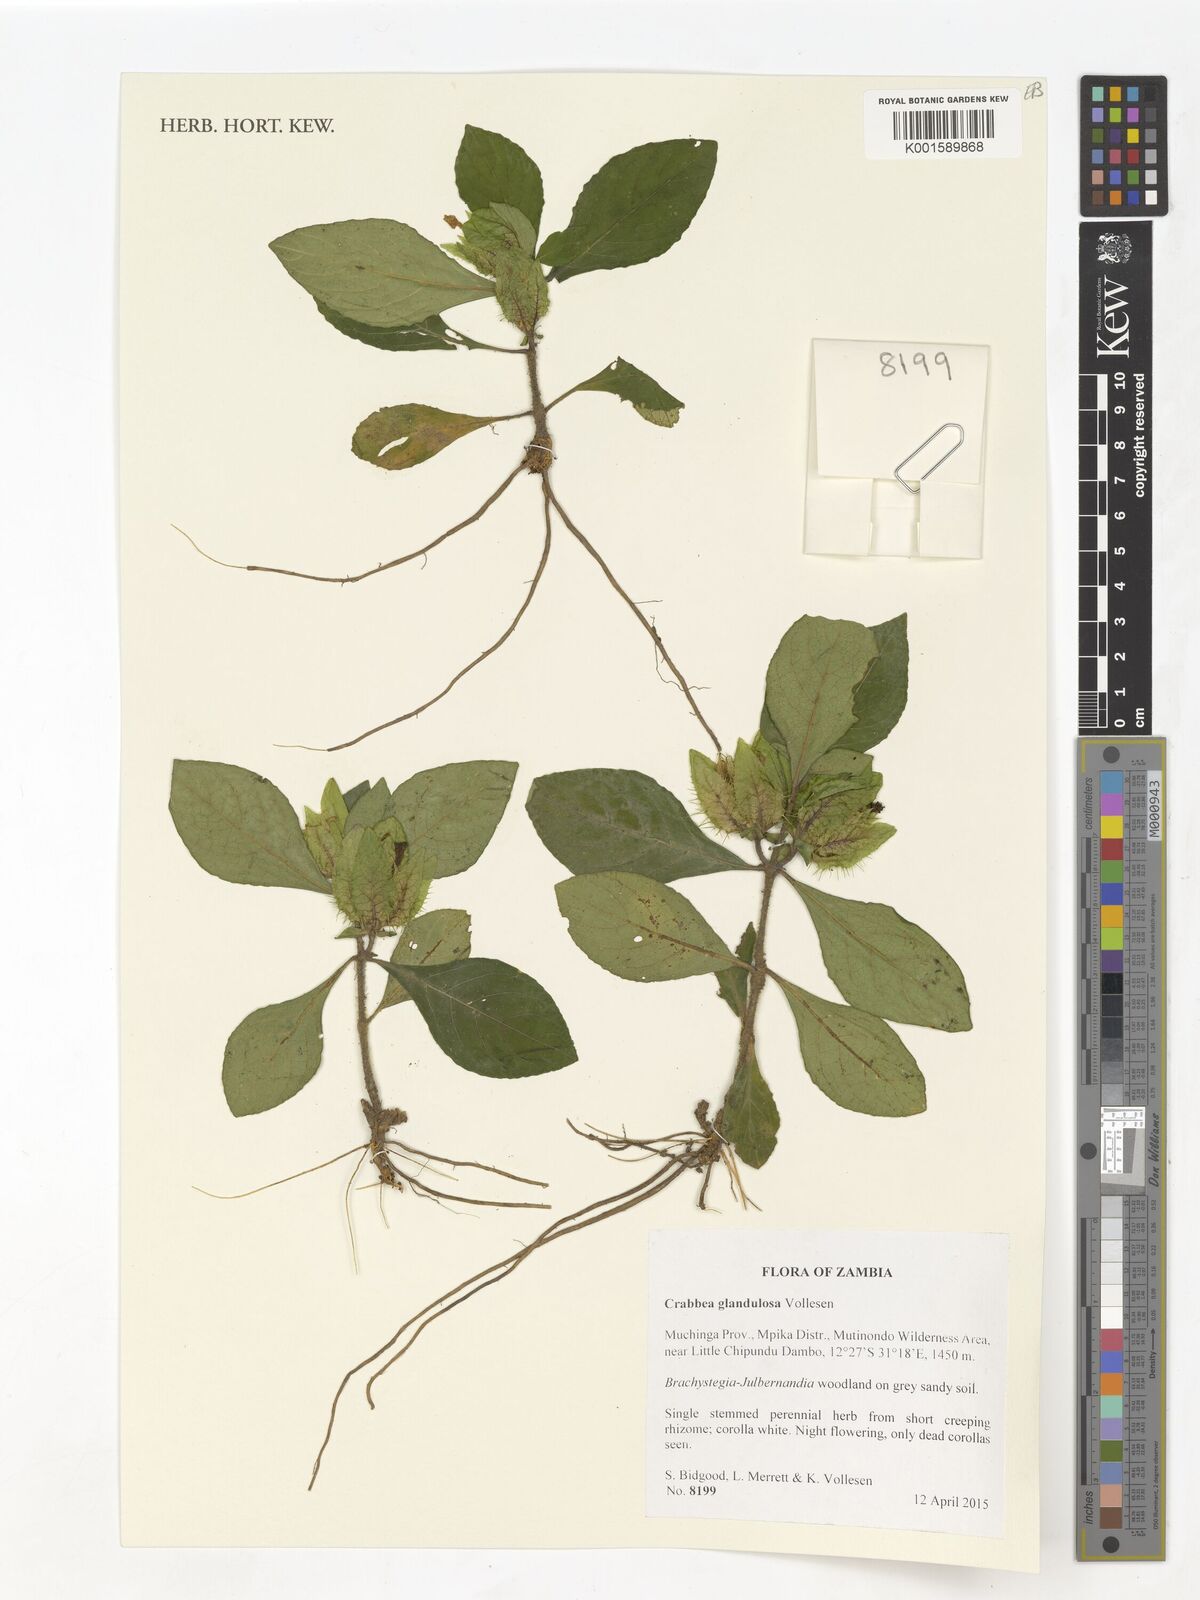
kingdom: Plantae
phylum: Tracheophyta
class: Magnoliopsida
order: Lamiales
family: Acanthaceae
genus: Crabbea
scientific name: Crabbea glandulosa
